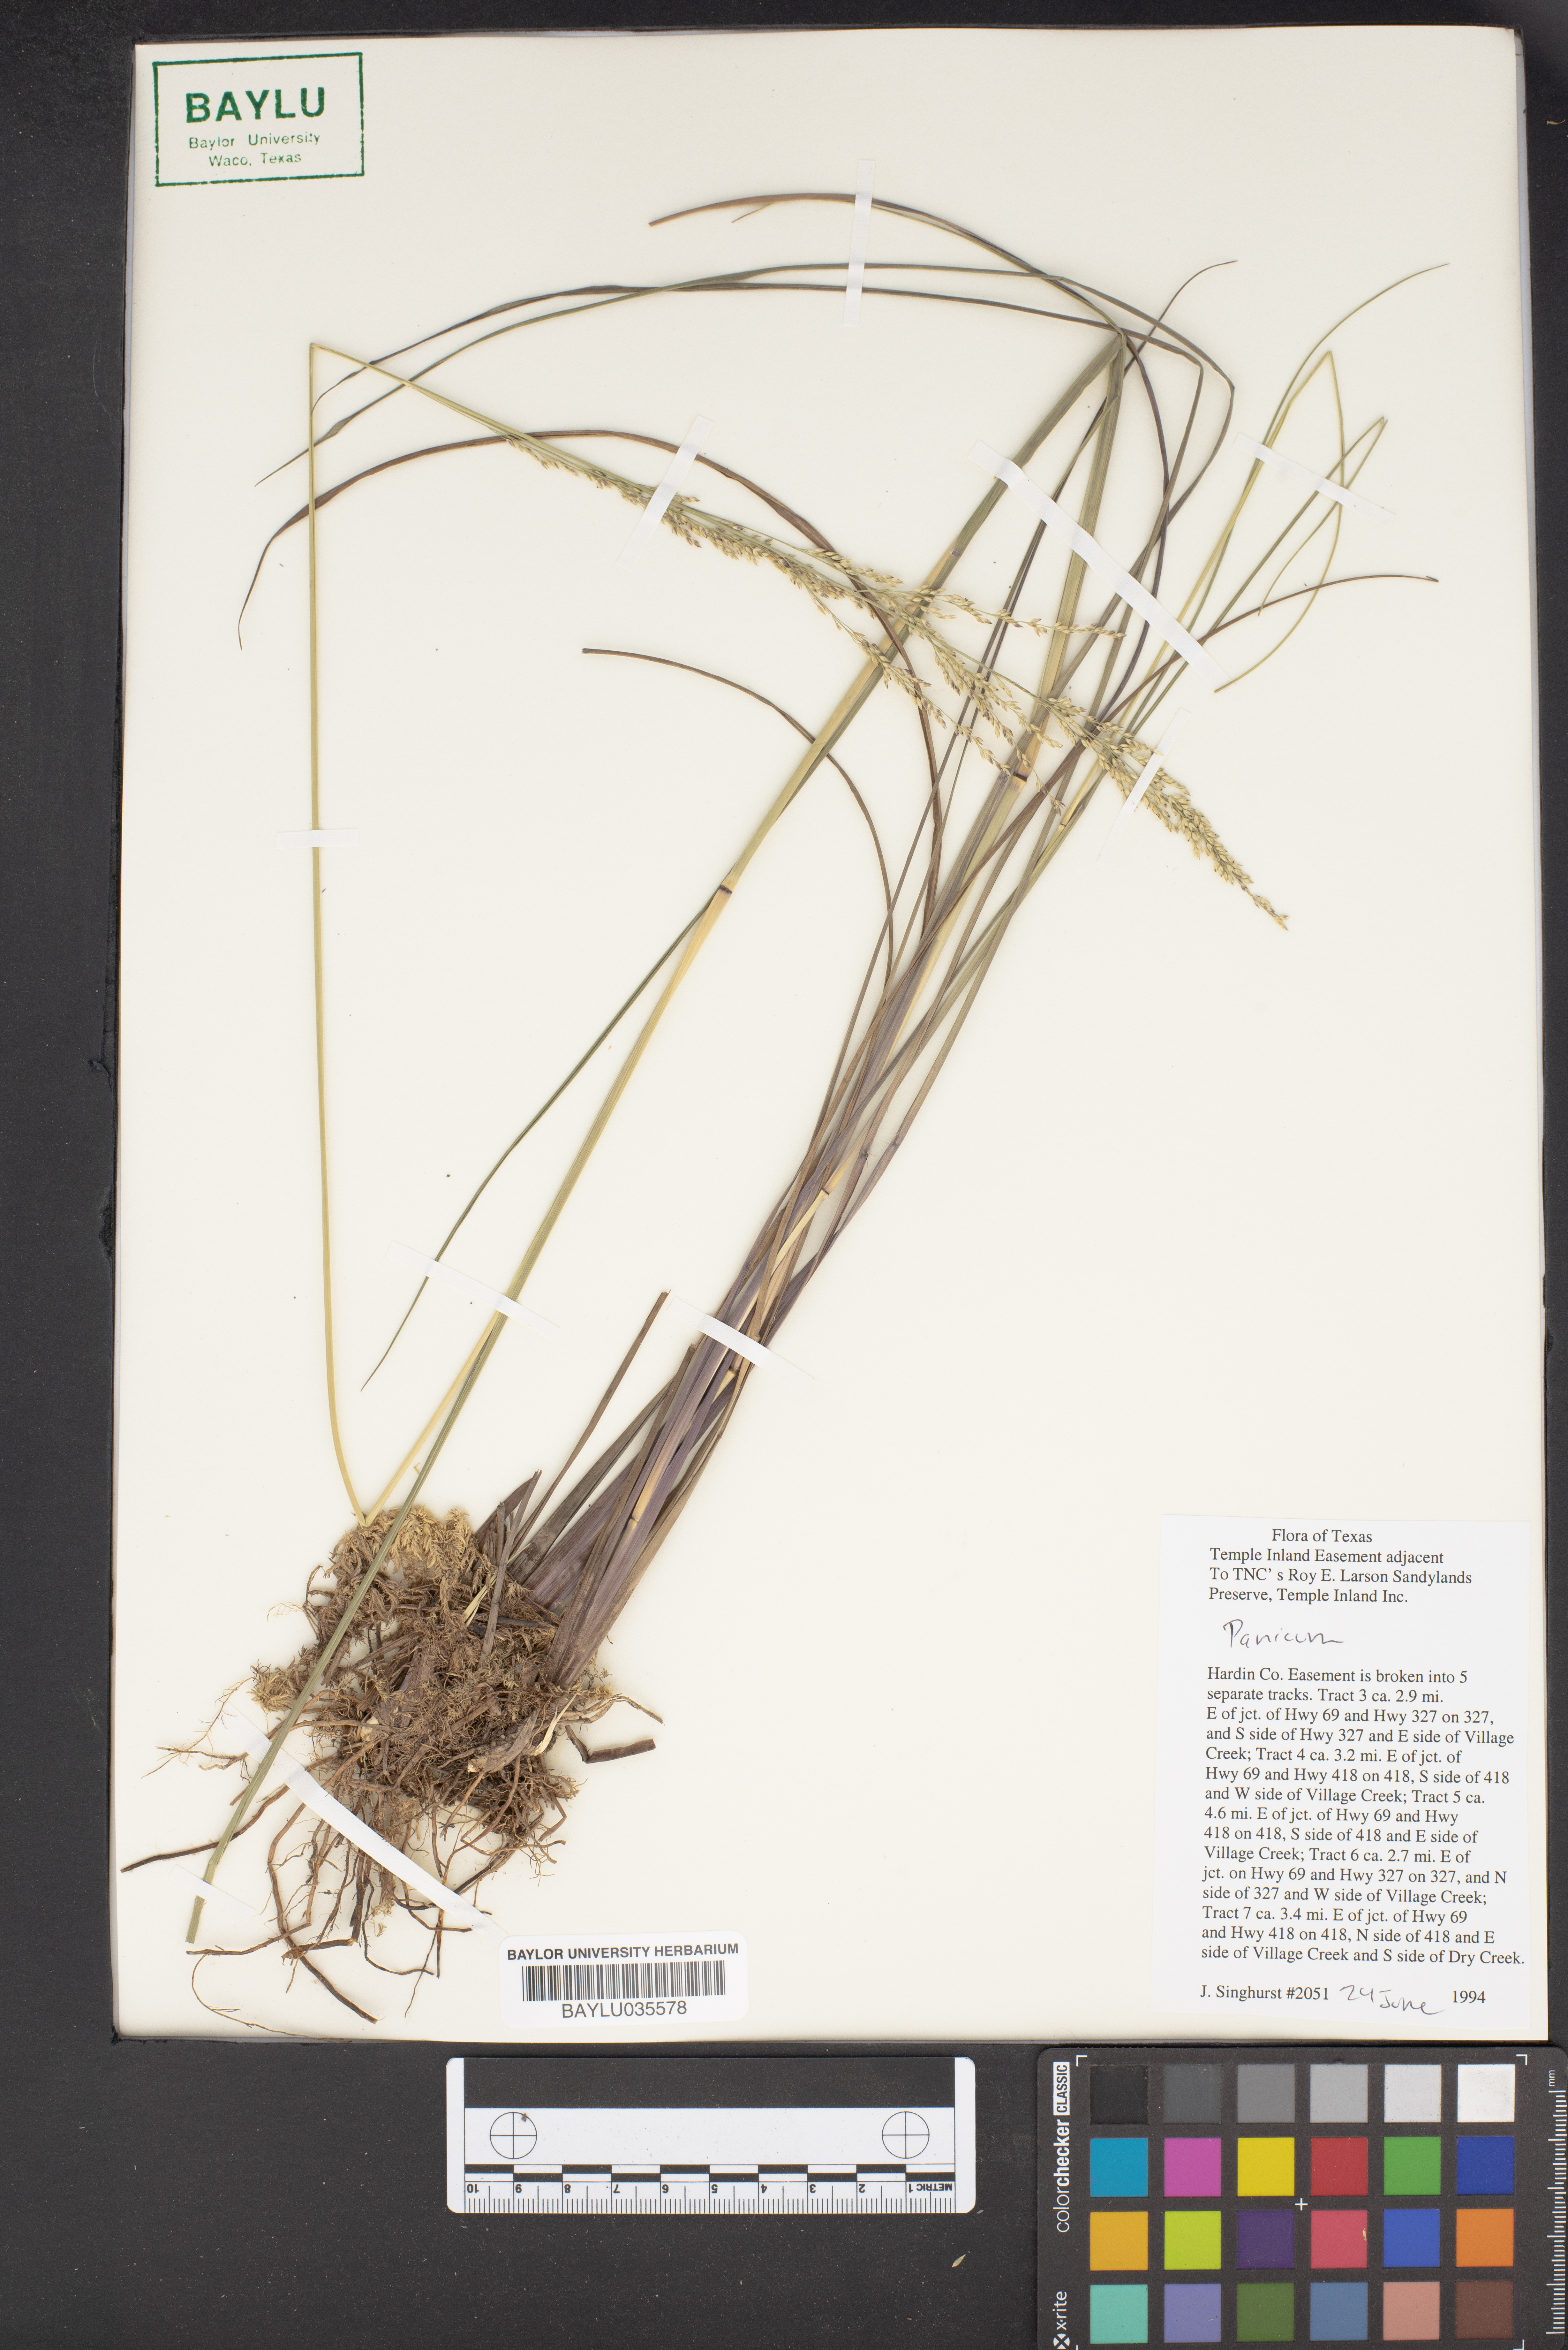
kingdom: Plantae
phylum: Tracheophyta
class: Liliopsida
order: Poales
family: Poaceae
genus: Panicum
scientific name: Panicum
